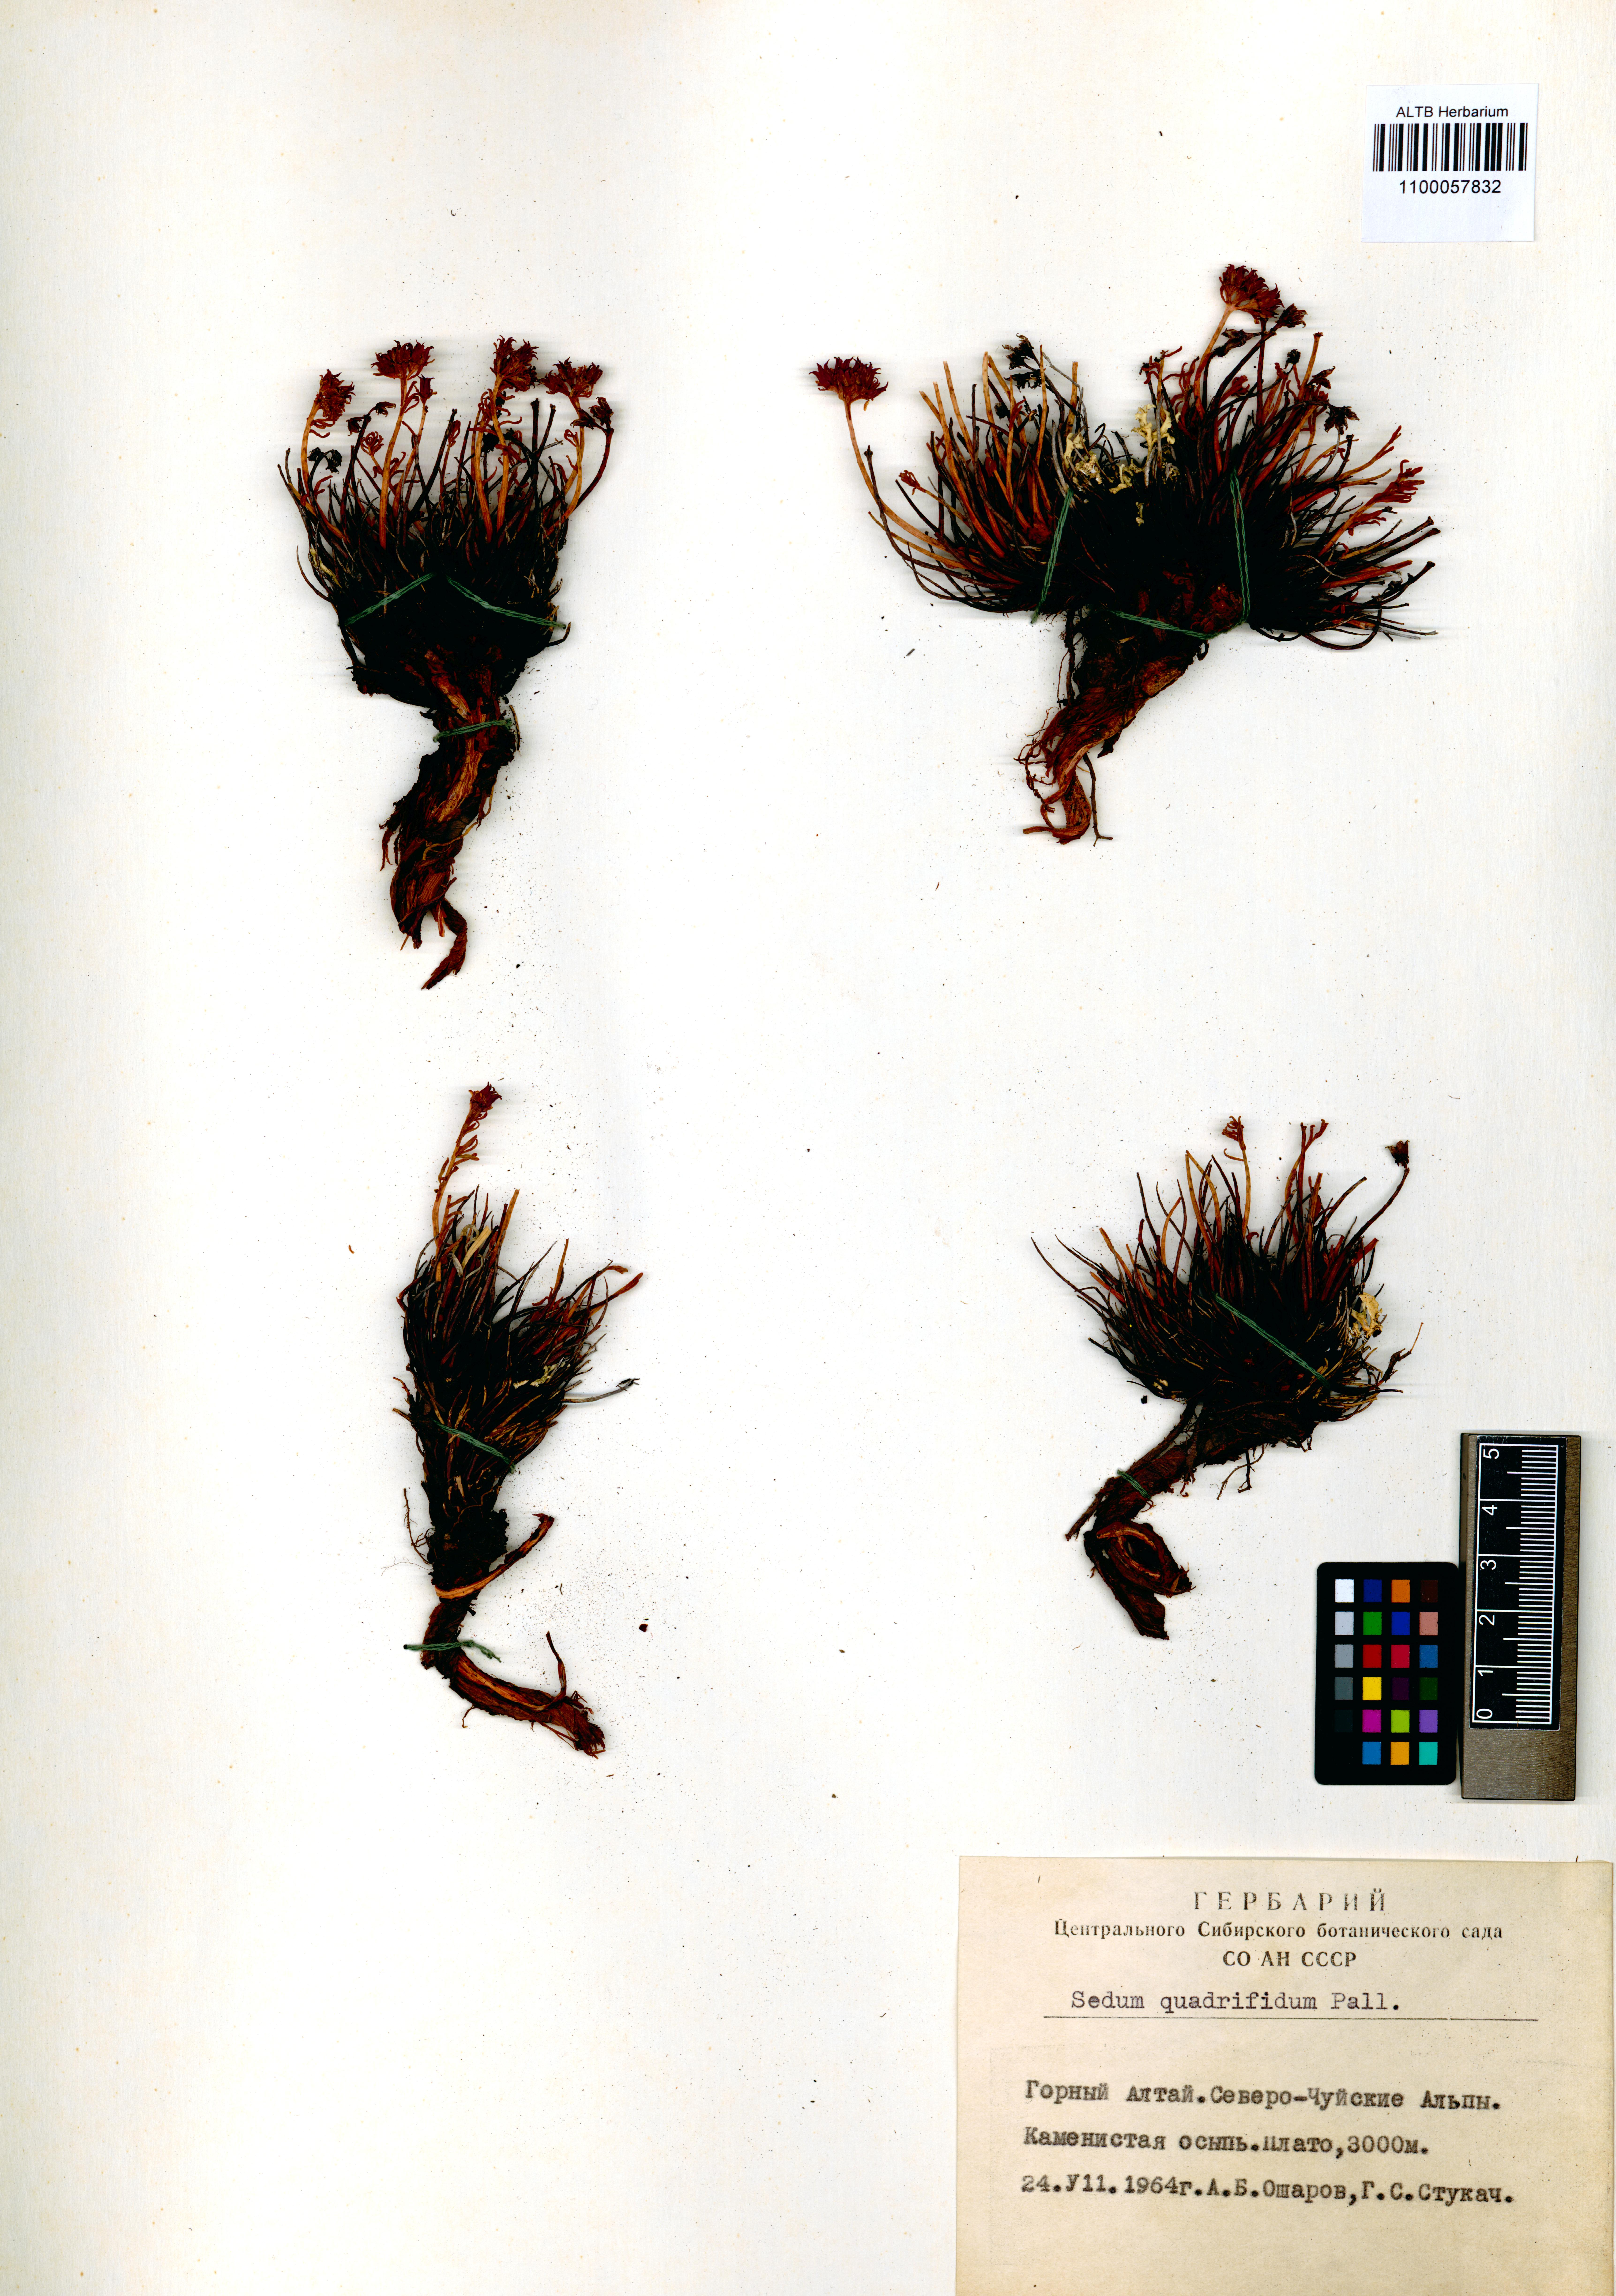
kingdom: Plantae
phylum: Tracheophyta
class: Magnoliopsida
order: Saxifragales
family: Crassulaceae
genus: Rhodiola
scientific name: Rhodiola quadrifida
